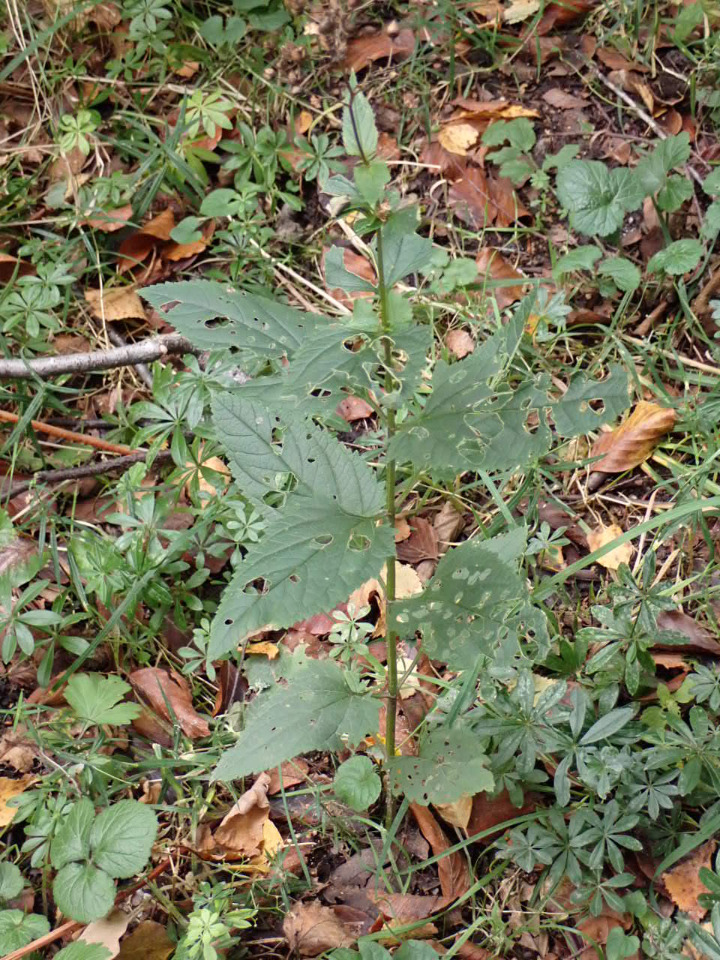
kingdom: Plantae
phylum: Tracheophyta
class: Magnoliopsida
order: Lamiales
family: Scrophulariaceae
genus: Scrophularia
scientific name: Scrophularia nodosa
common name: Knoldet brunrod
